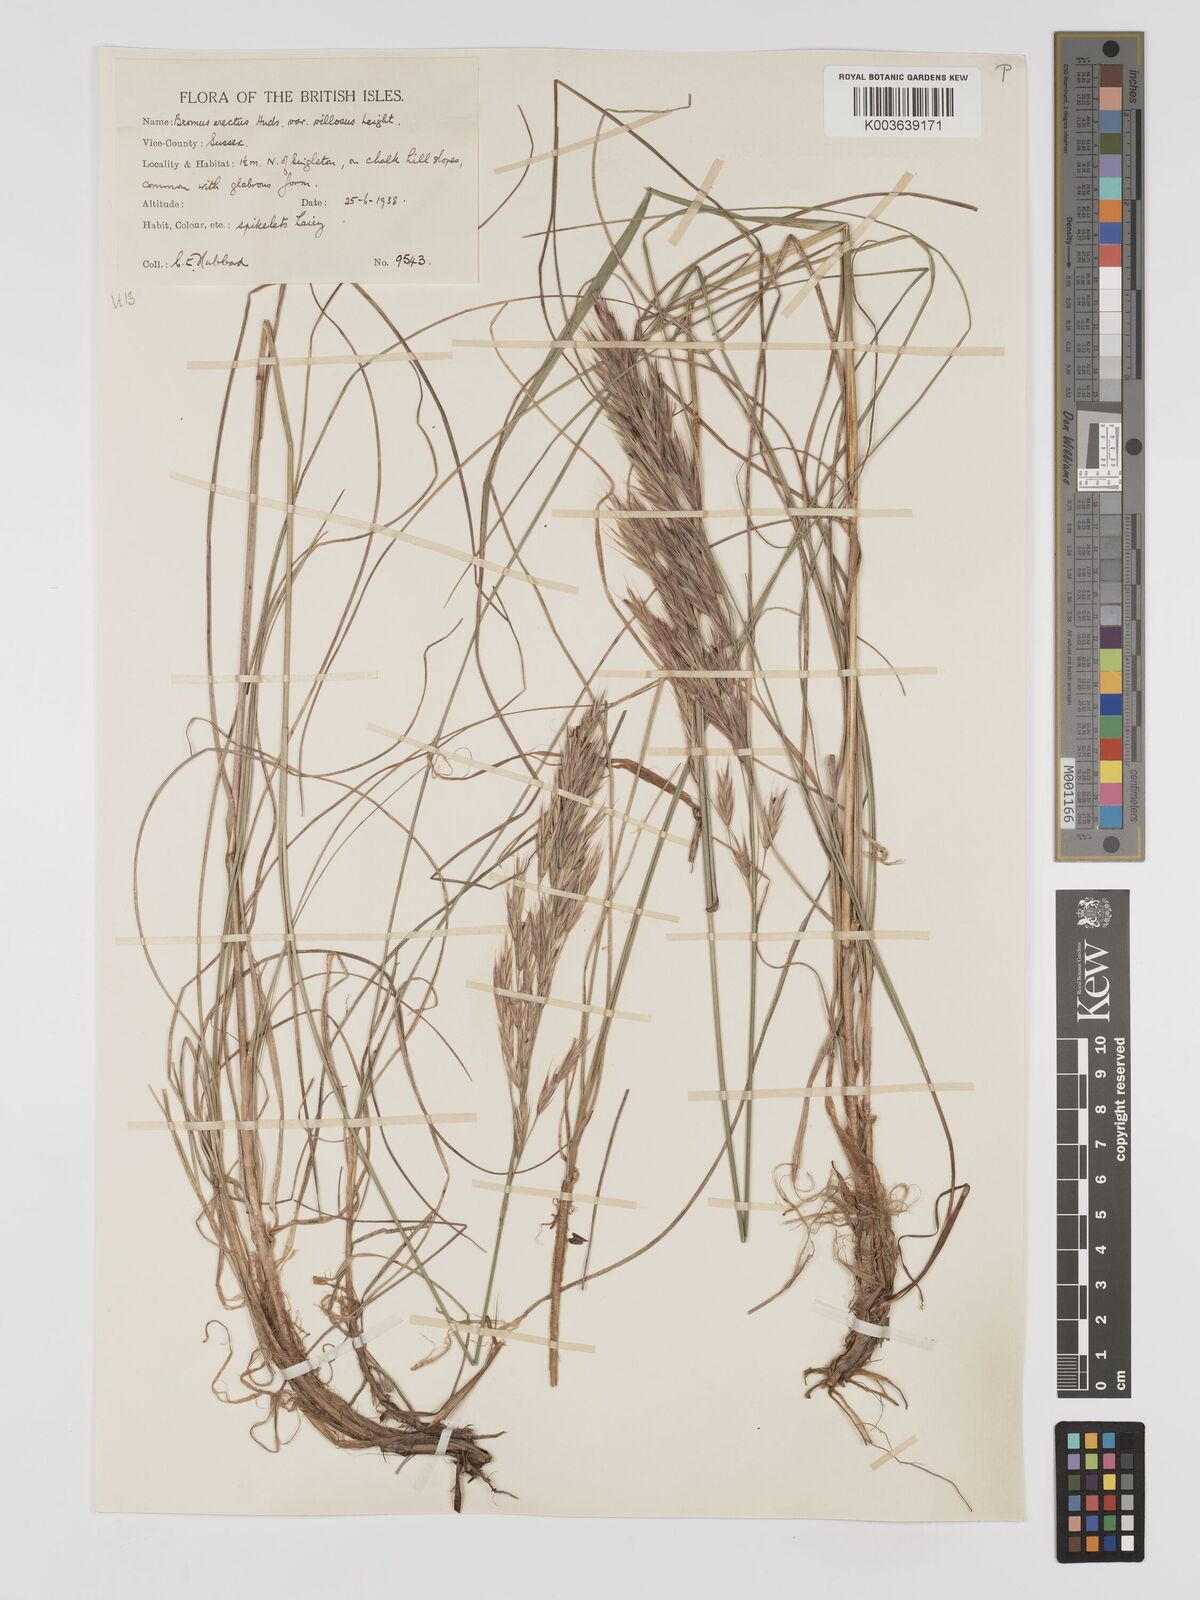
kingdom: Plantae
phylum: Tracheophyta
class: Liliopsida
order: Poales
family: Poaceae
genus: Bromus
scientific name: Bromus erectus
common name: Erect brome
